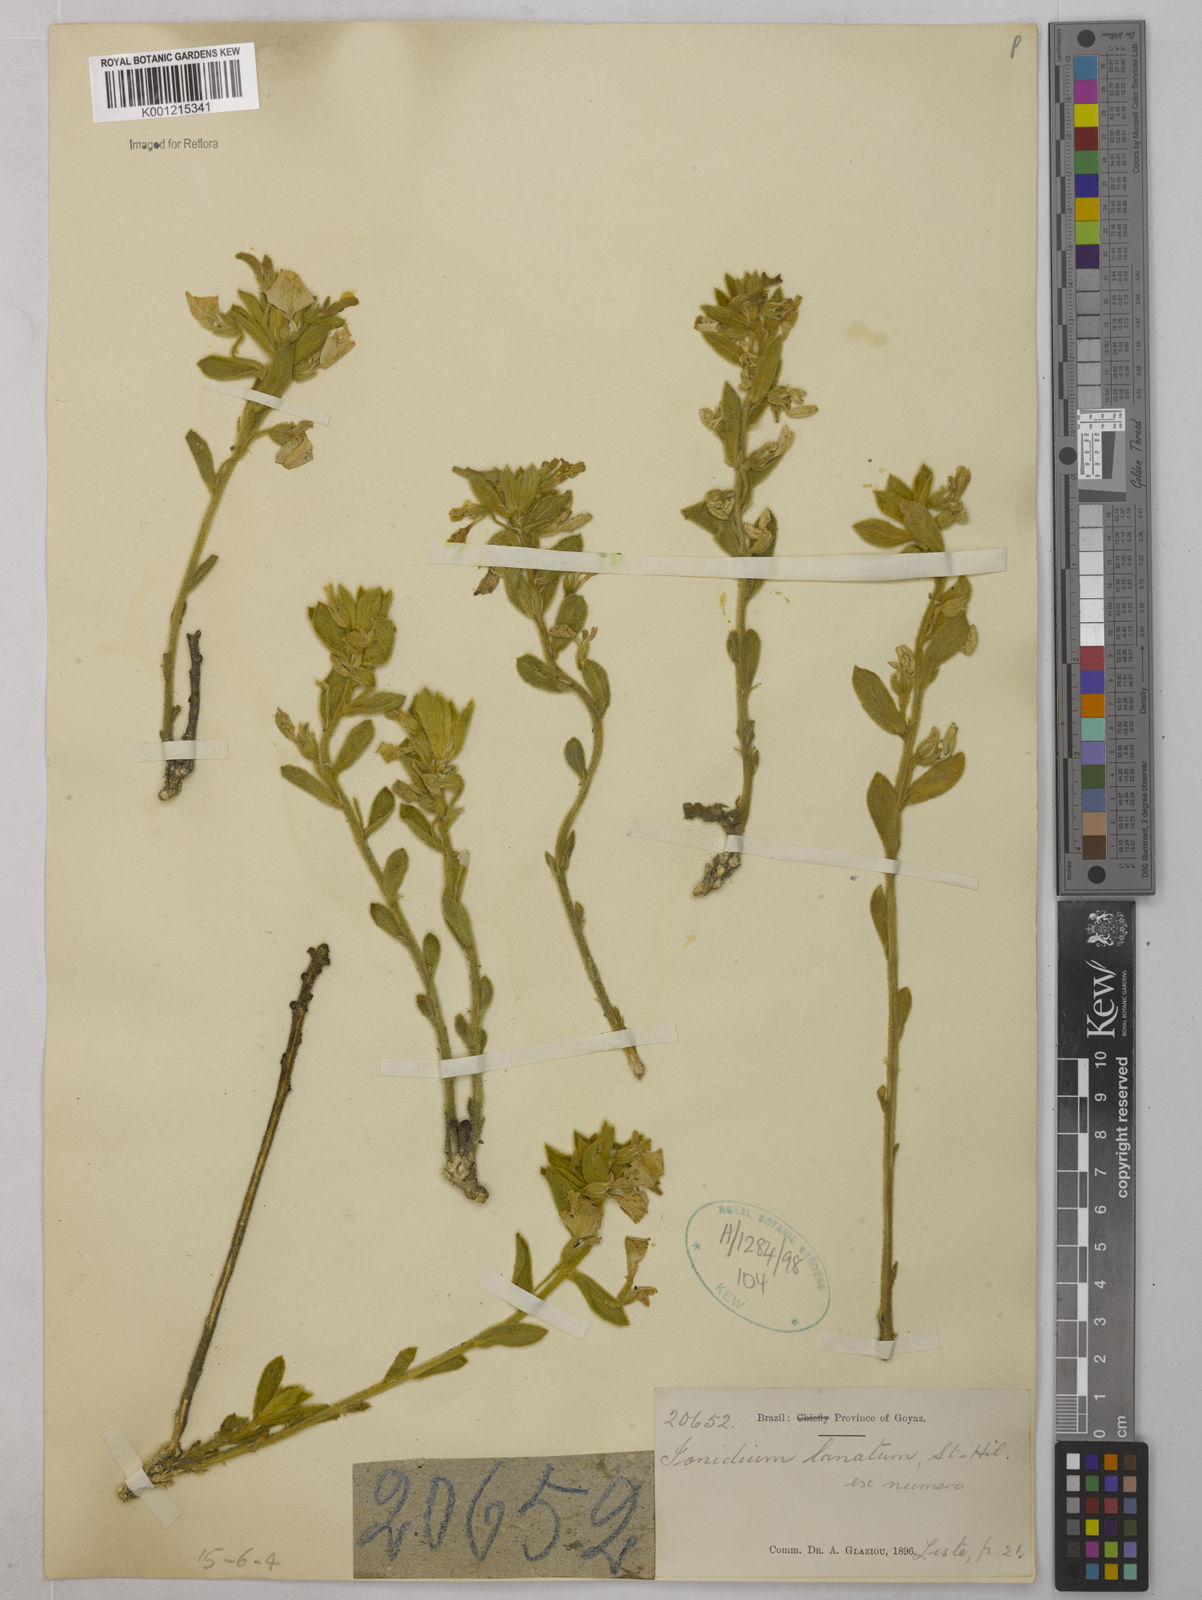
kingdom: Plantae
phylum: Tracheophyta
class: Magnoliopsida
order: Malpighiales
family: Violaceae
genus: Pombalia
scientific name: Pombalia lanata
